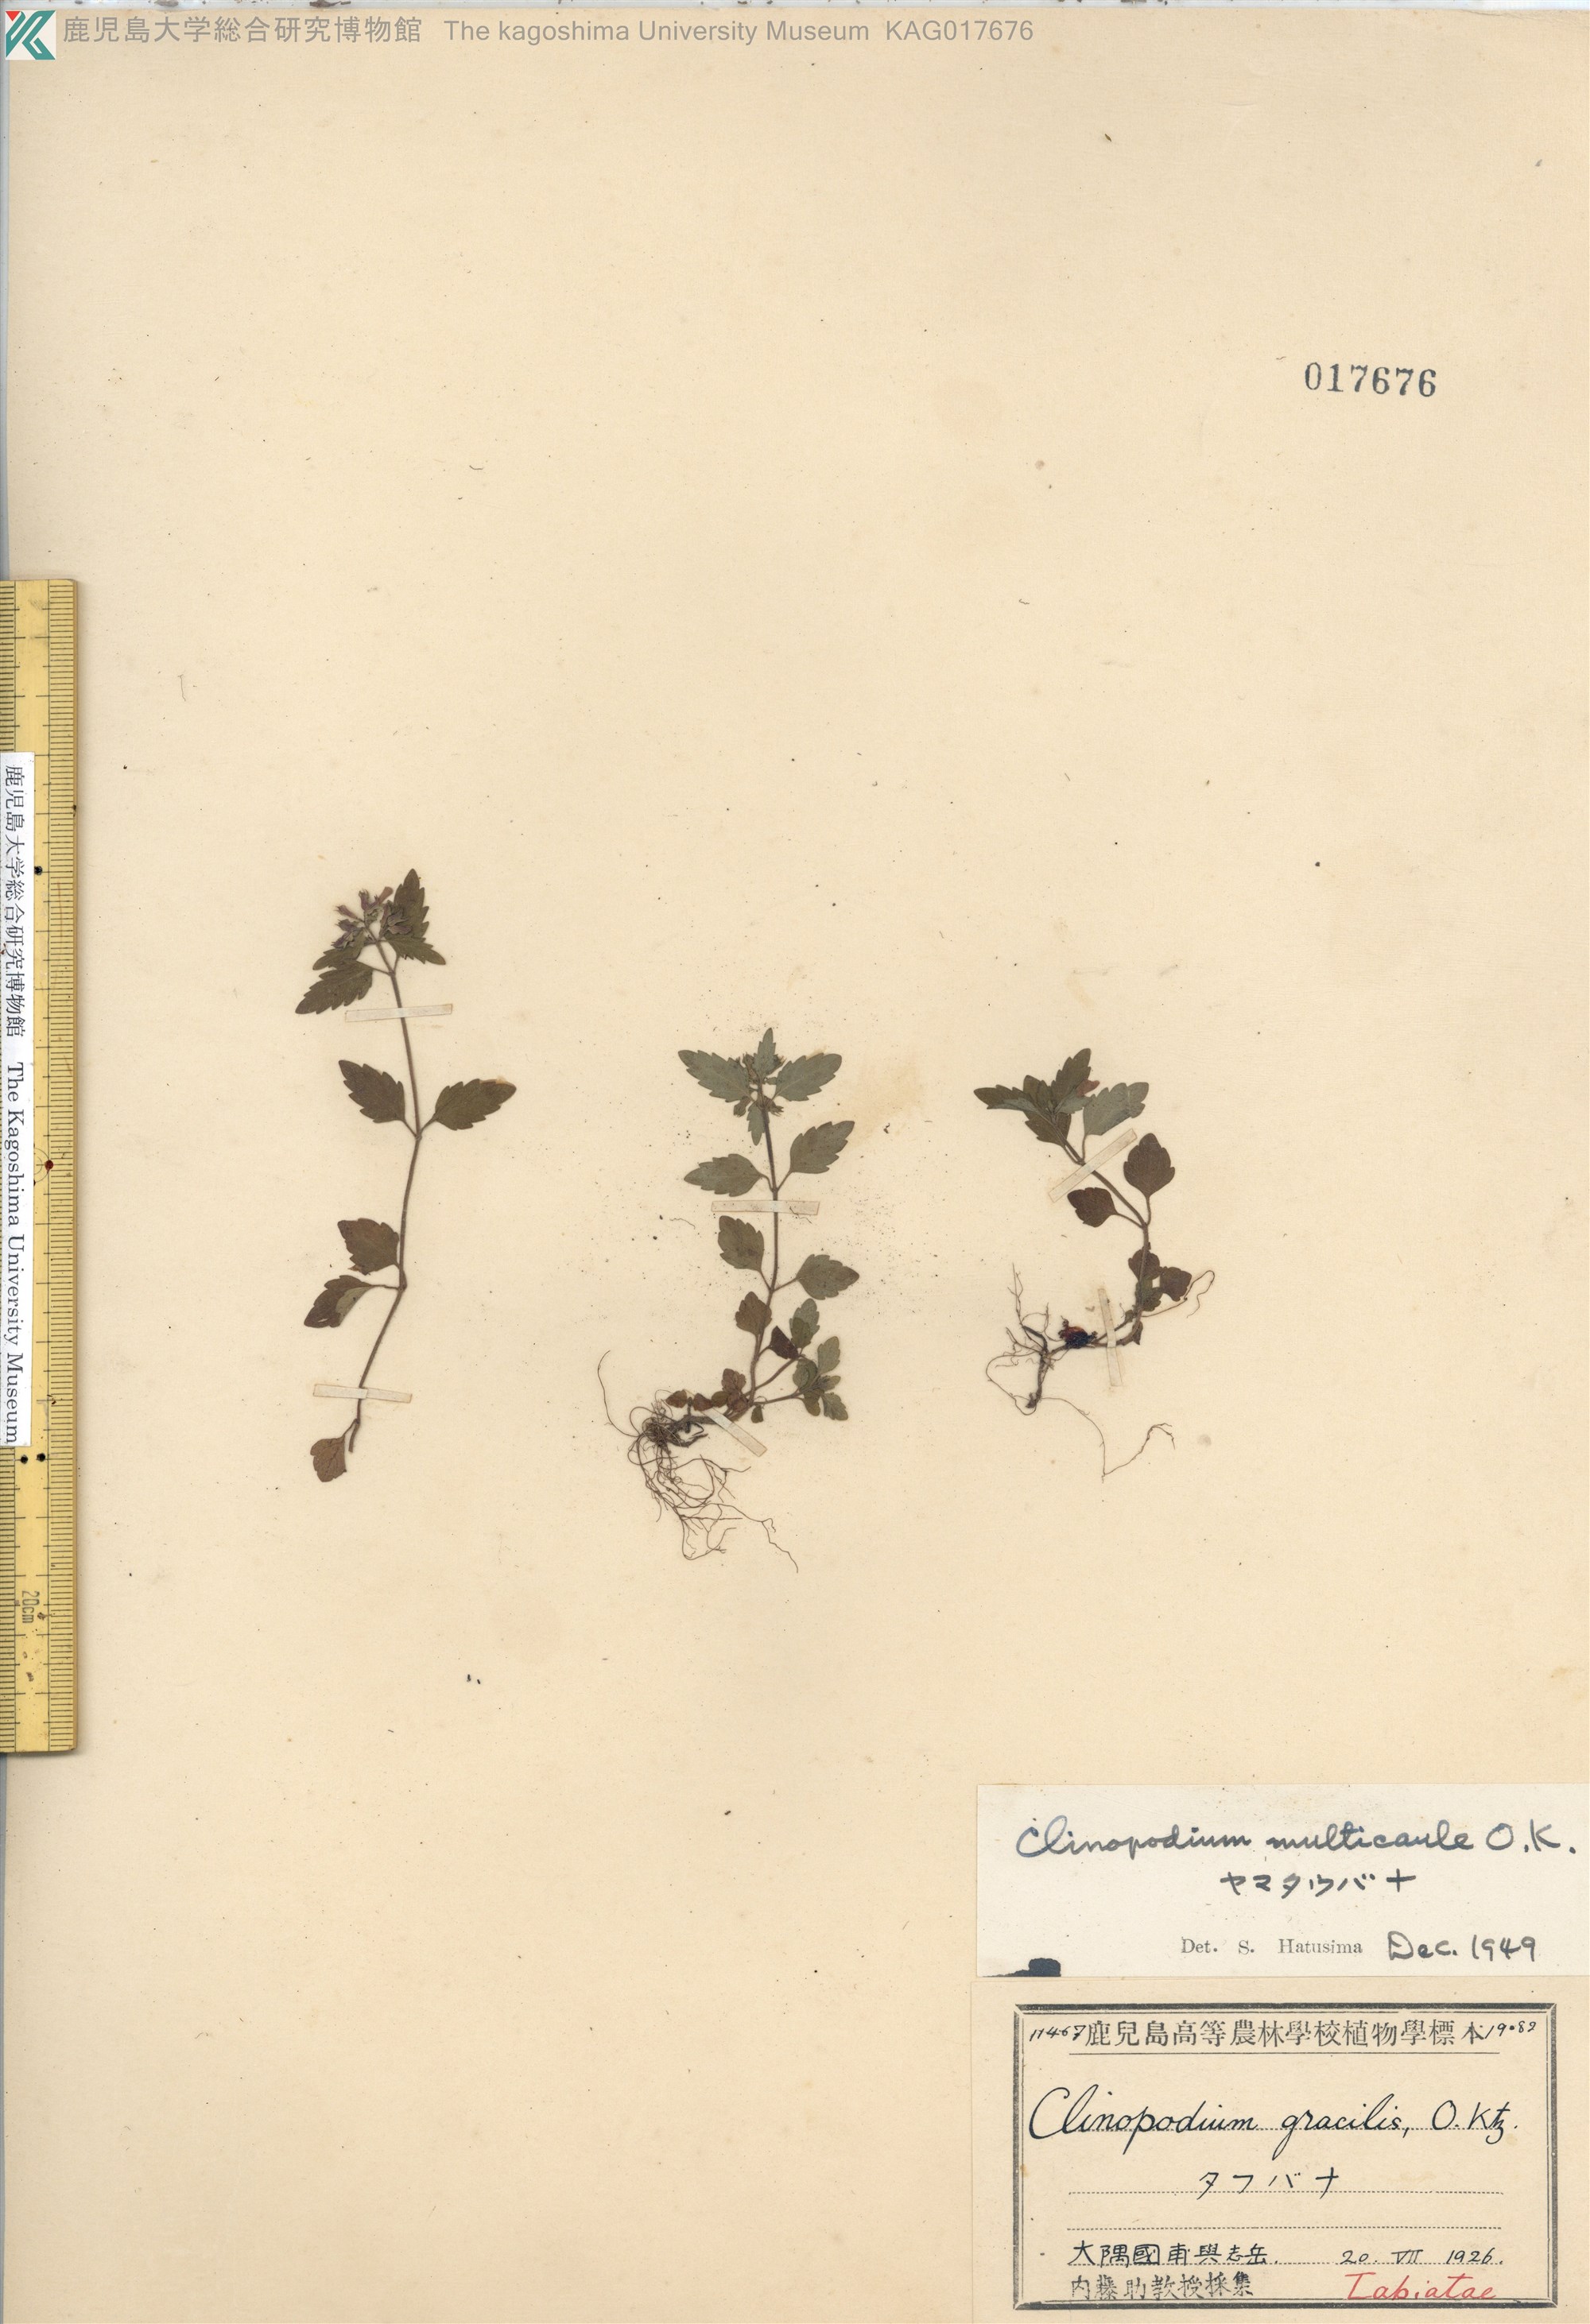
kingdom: Plantae
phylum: Tracheophyta
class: Magnoliopsida
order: Lamiales
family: Lamiaceae
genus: Clinopodium
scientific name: Clinopodium multicaule
